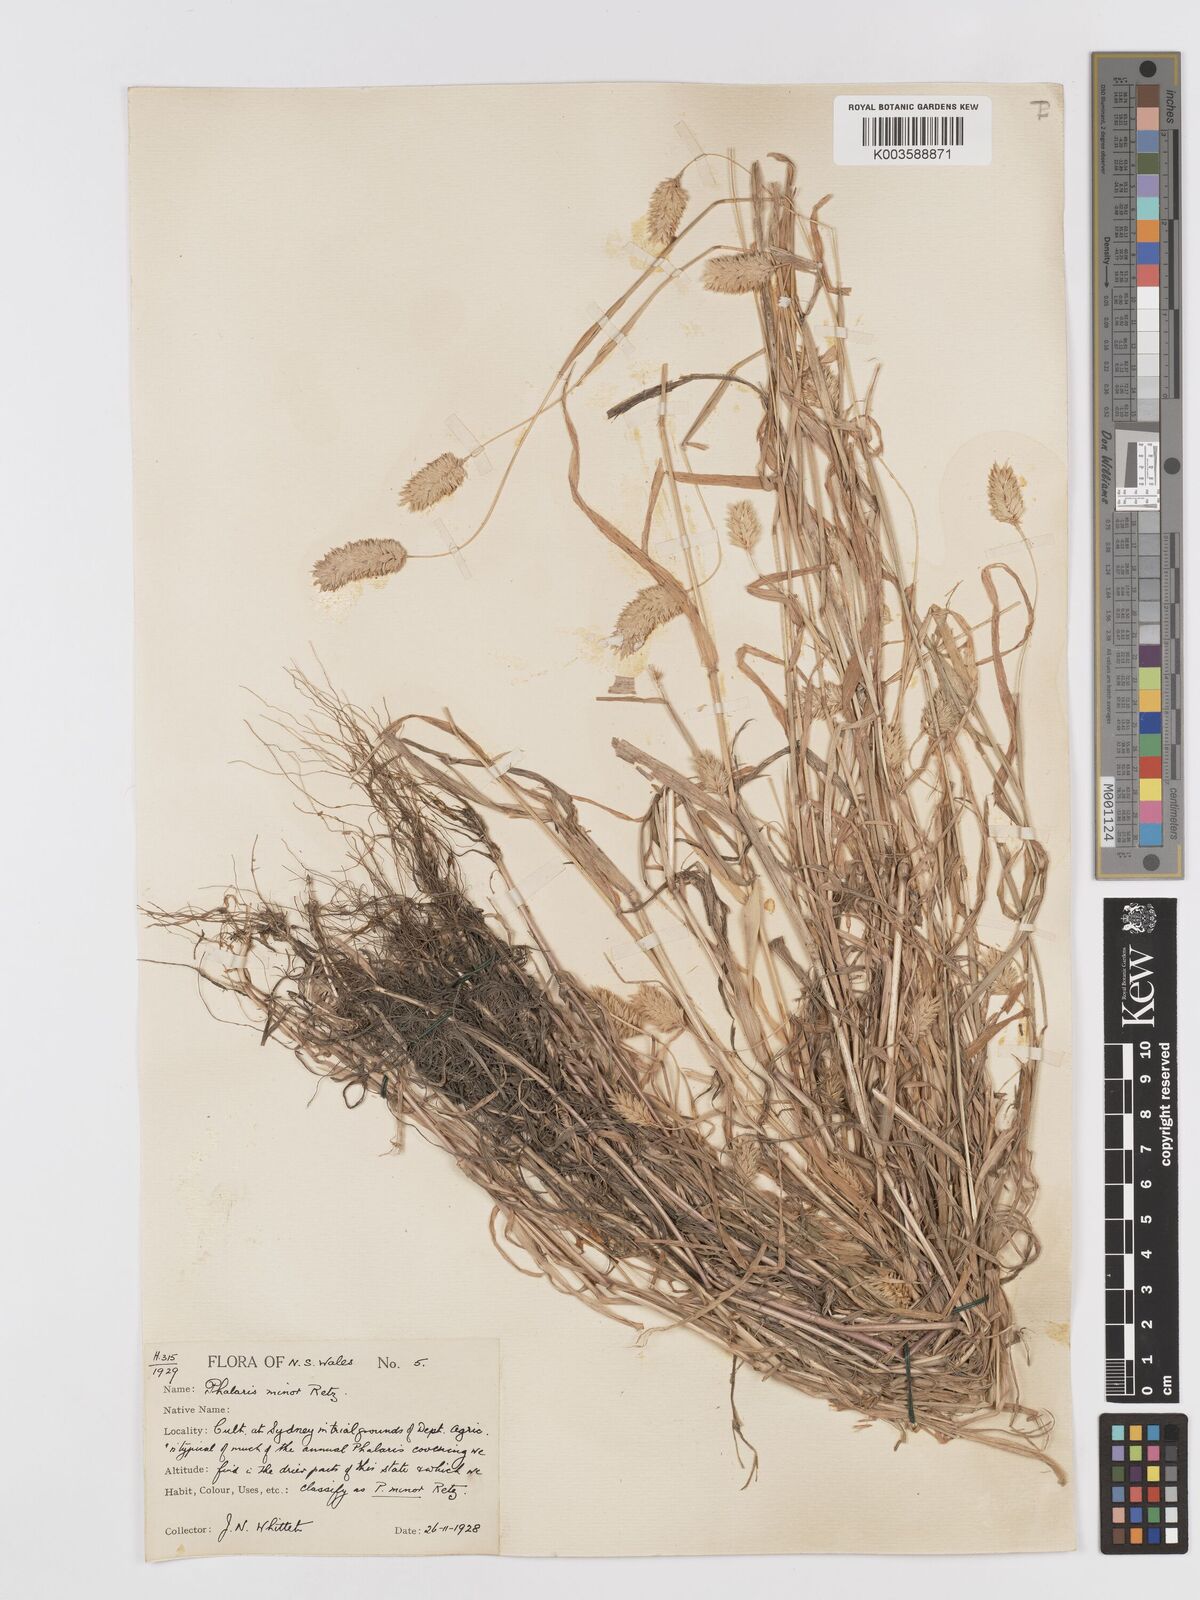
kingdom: Plantae
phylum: Tracheophyta
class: Liliopsida
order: Poales
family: Poaceae
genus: Phalaris
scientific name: Phalaris minor
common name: Littleseed canarygrass
